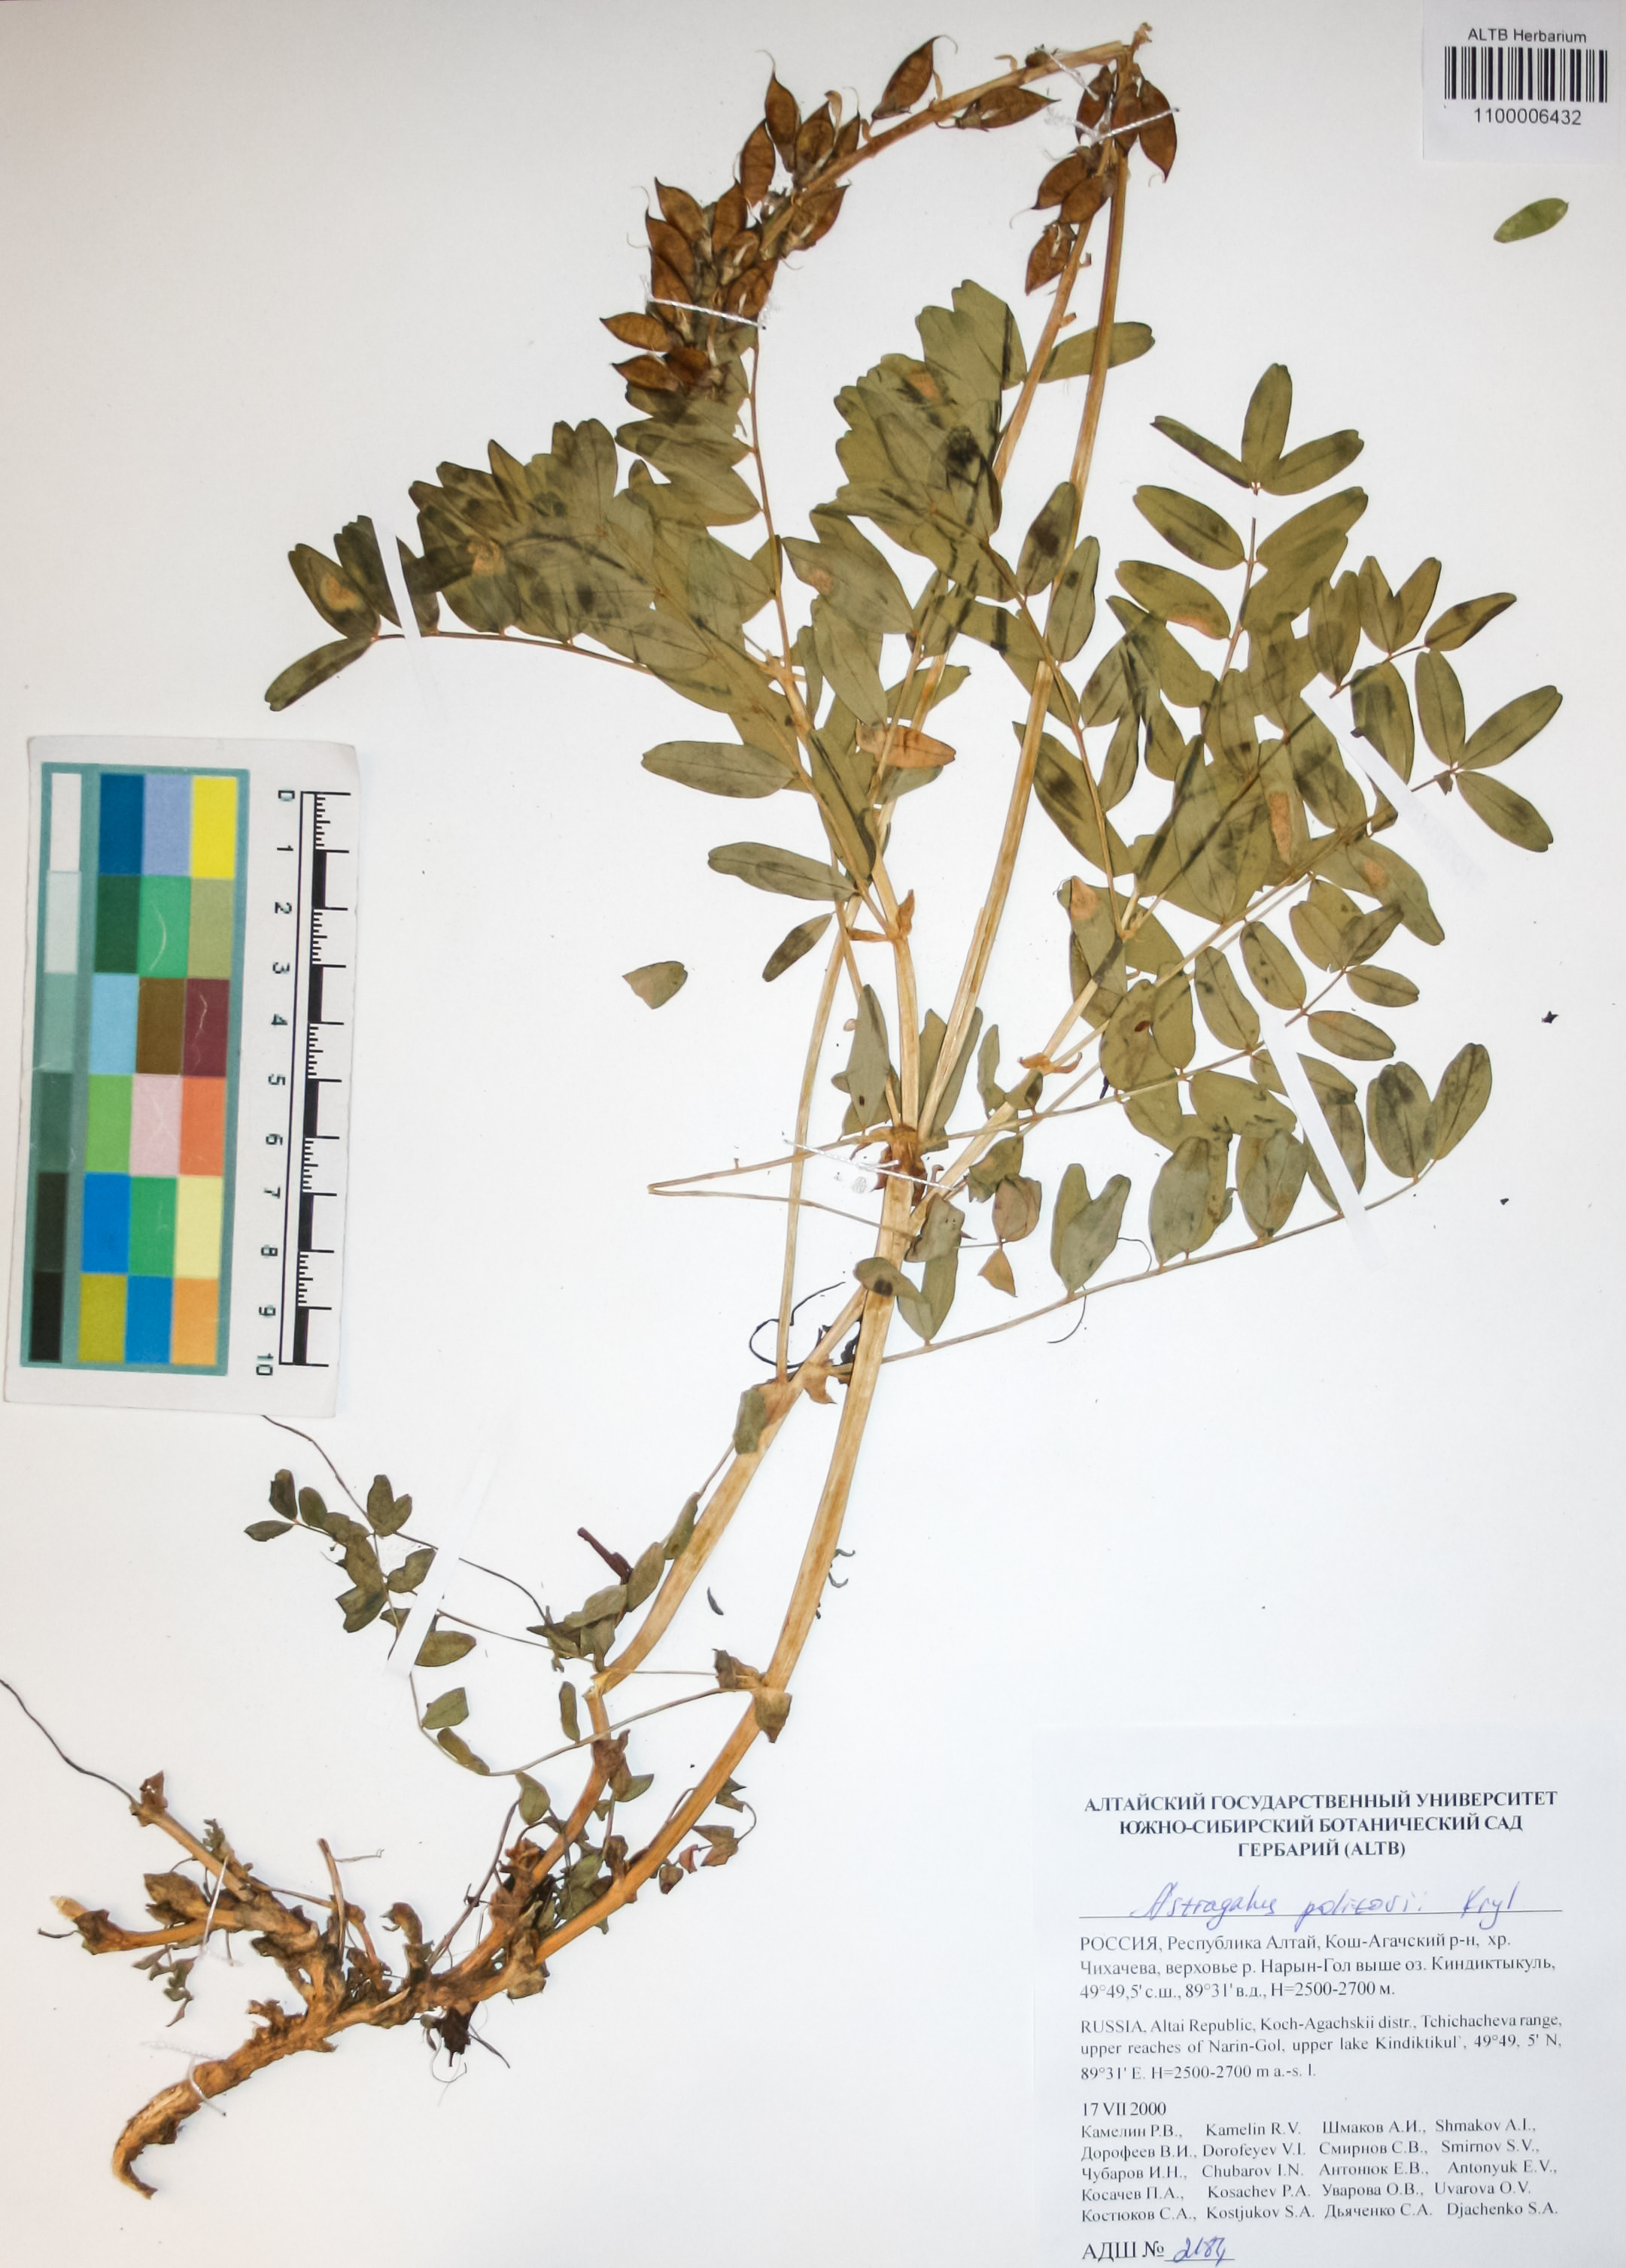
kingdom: Plantae
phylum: Tracheophyta
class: Magnoliopsida
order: Fabales
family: Fabaceae
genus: Astragalus
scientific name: Astragalus politovii
